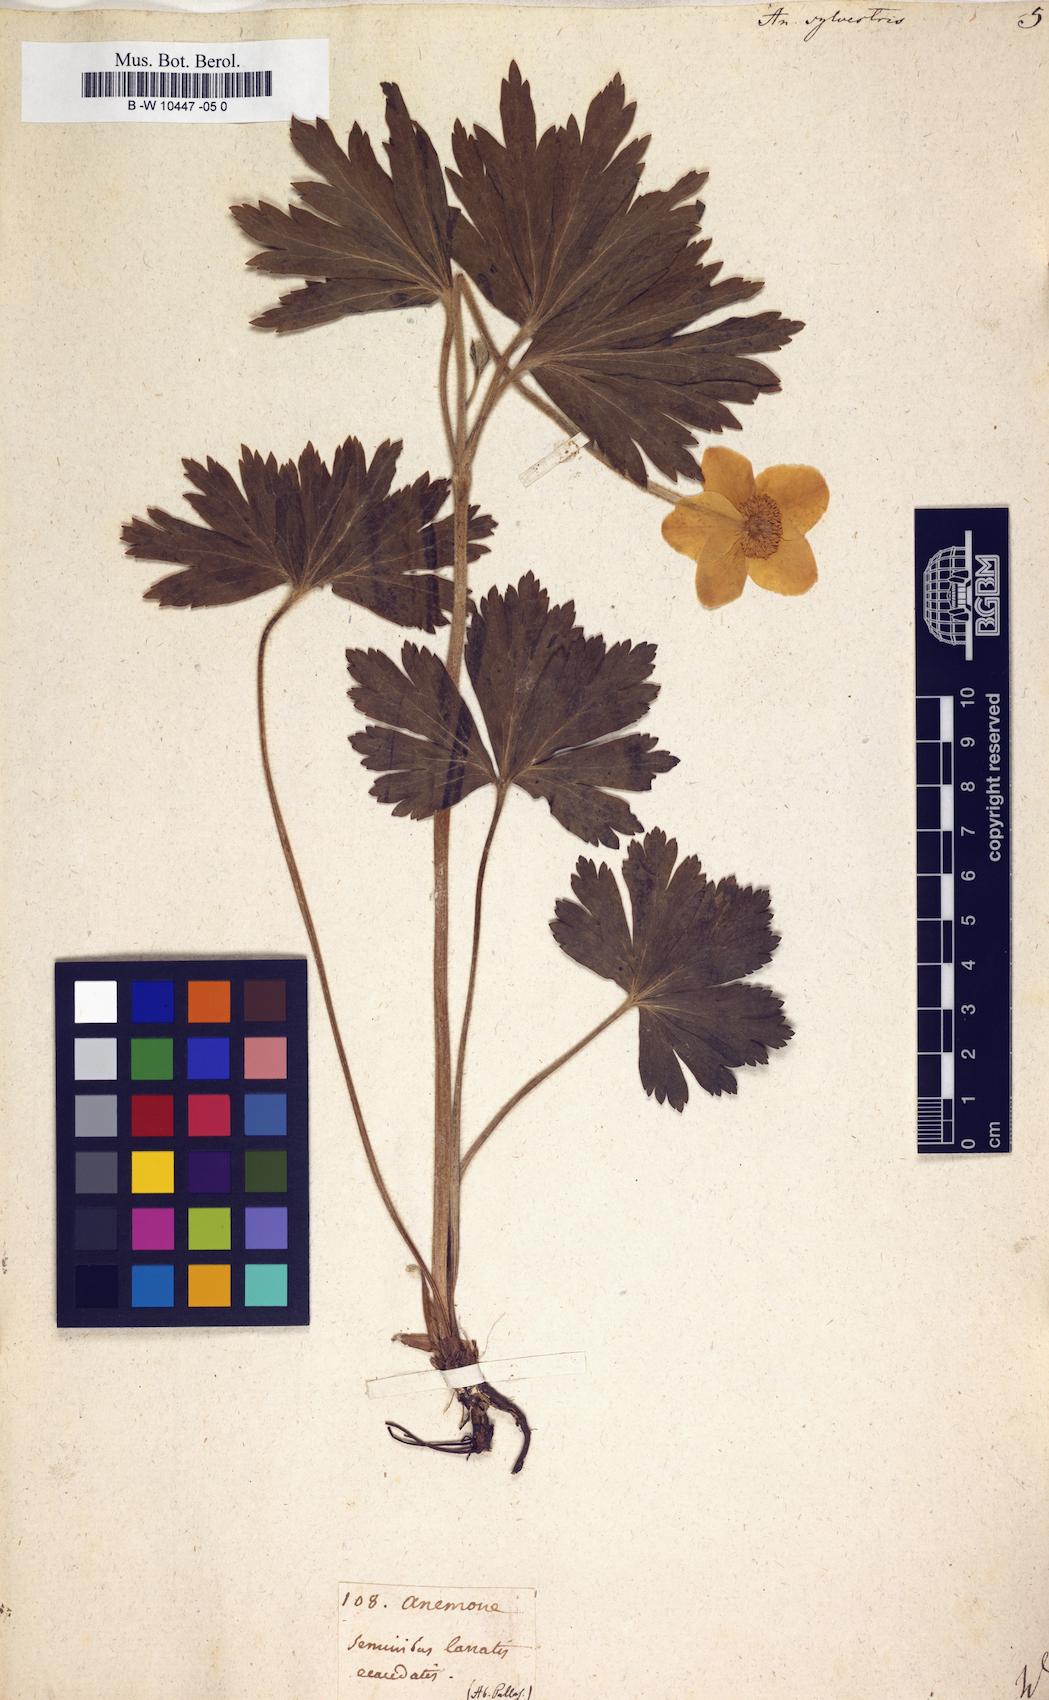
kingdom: Plantae
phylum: Tracheophyta
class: Magnoliopsida
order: Ranunculales
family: Ranunculaceae
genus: Anemone
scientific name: Anemone sylvestris
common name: Snowdrop anemone
